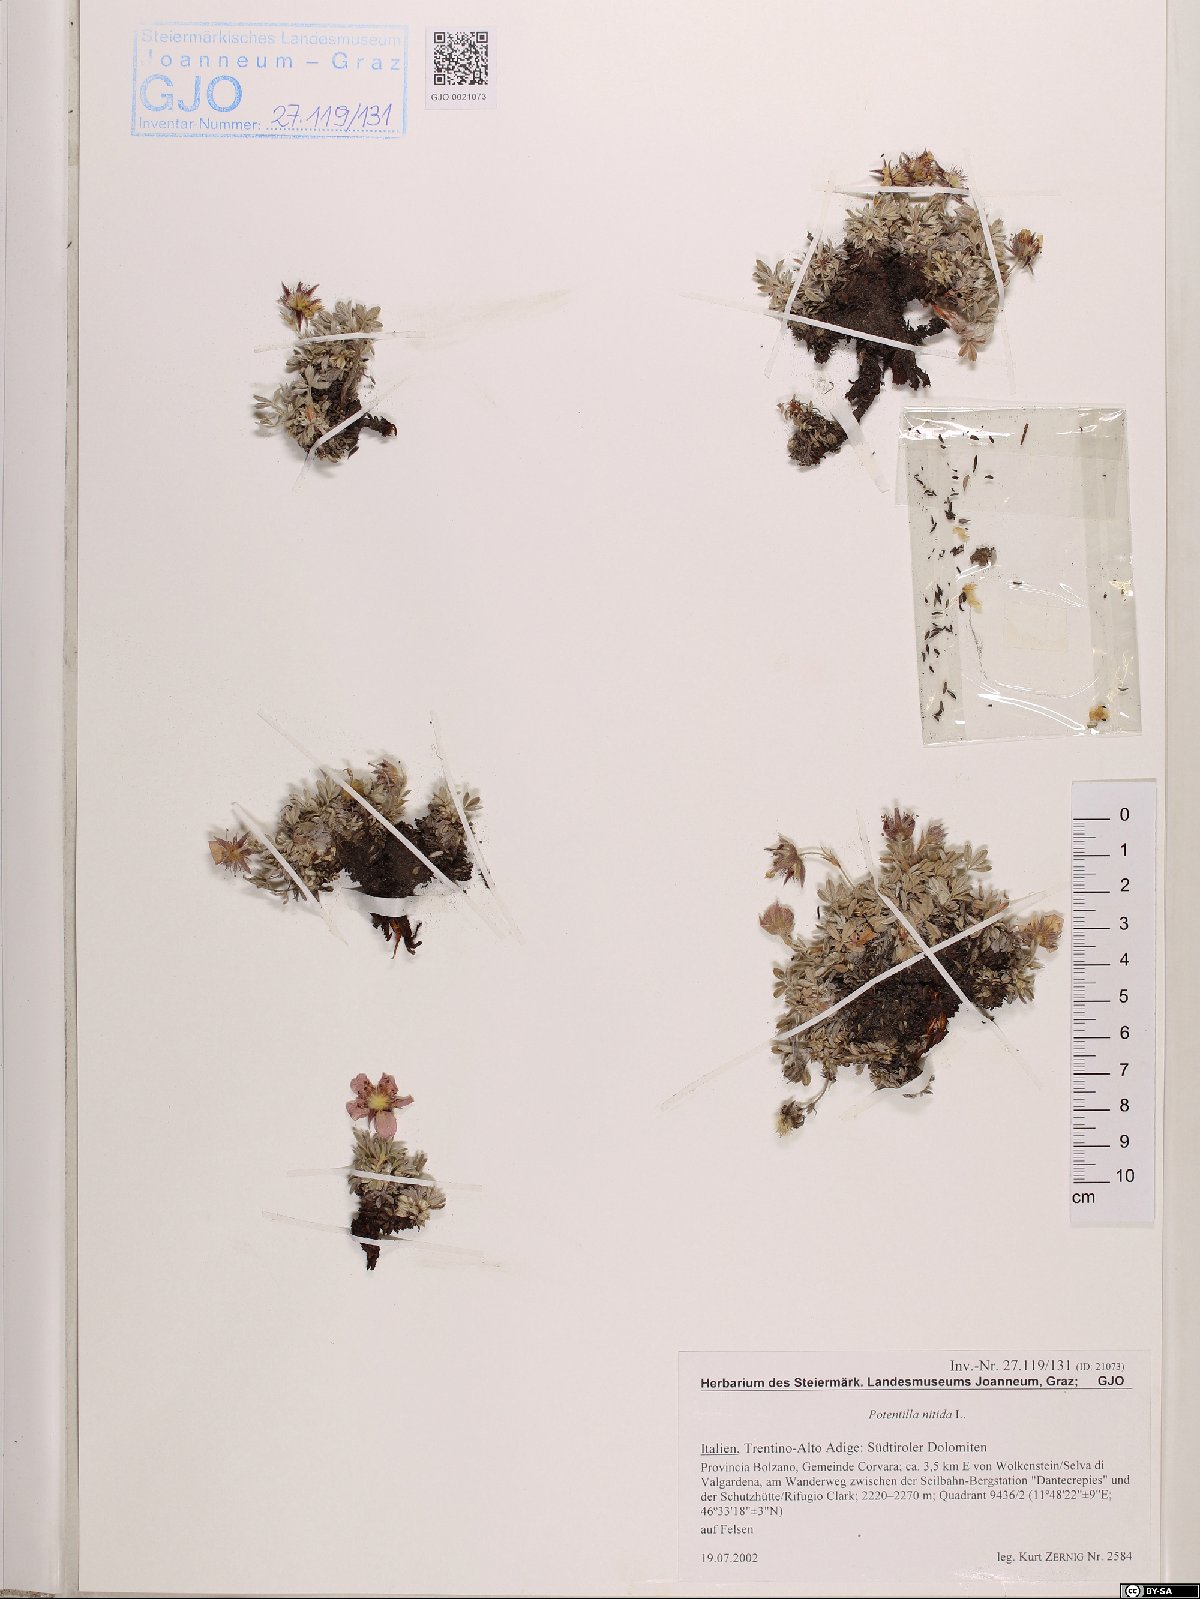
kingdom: Plantae
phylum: Tracheophyta
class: Magnoliopsida
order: Rosales
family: Rosaceae
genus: Potentilla
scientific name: Potentilla nitida
